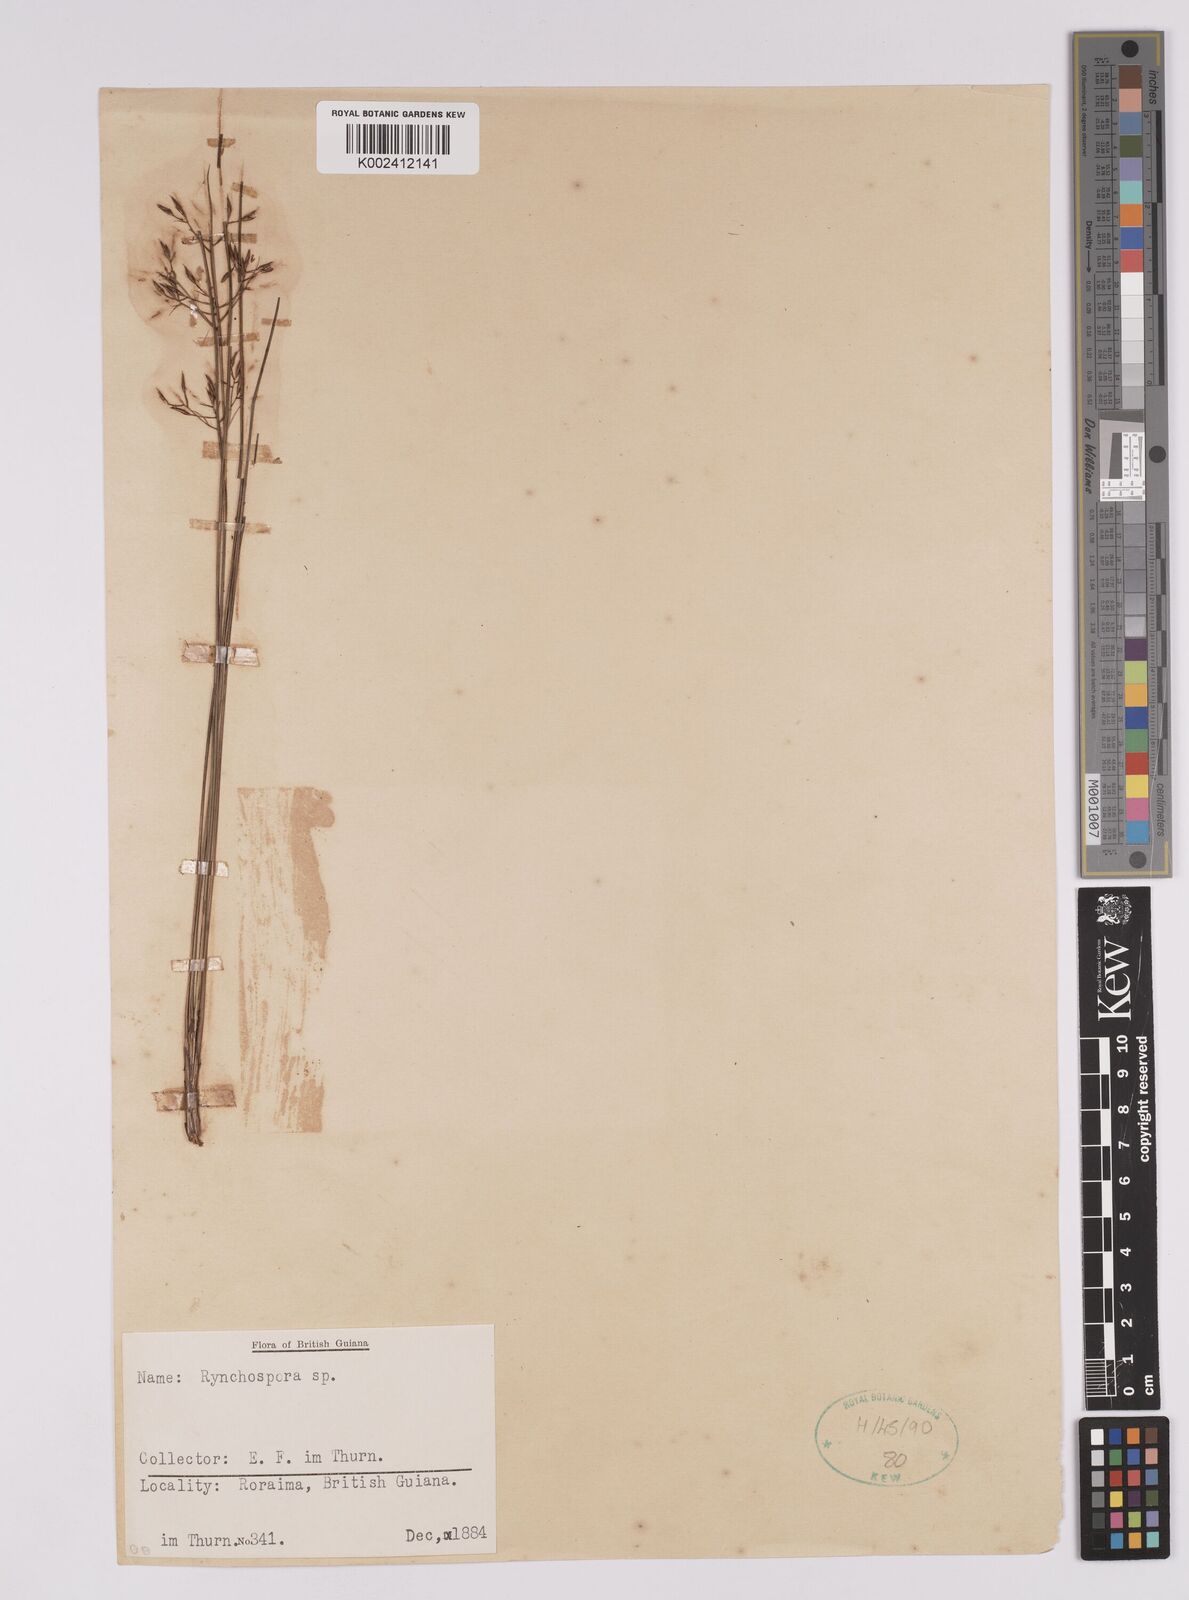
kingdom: Plantae
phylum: Tracheophyta
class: Liliopsida
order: Poales
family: Cyperaceae
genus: Rhynchospora
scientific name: Rhynchospora
